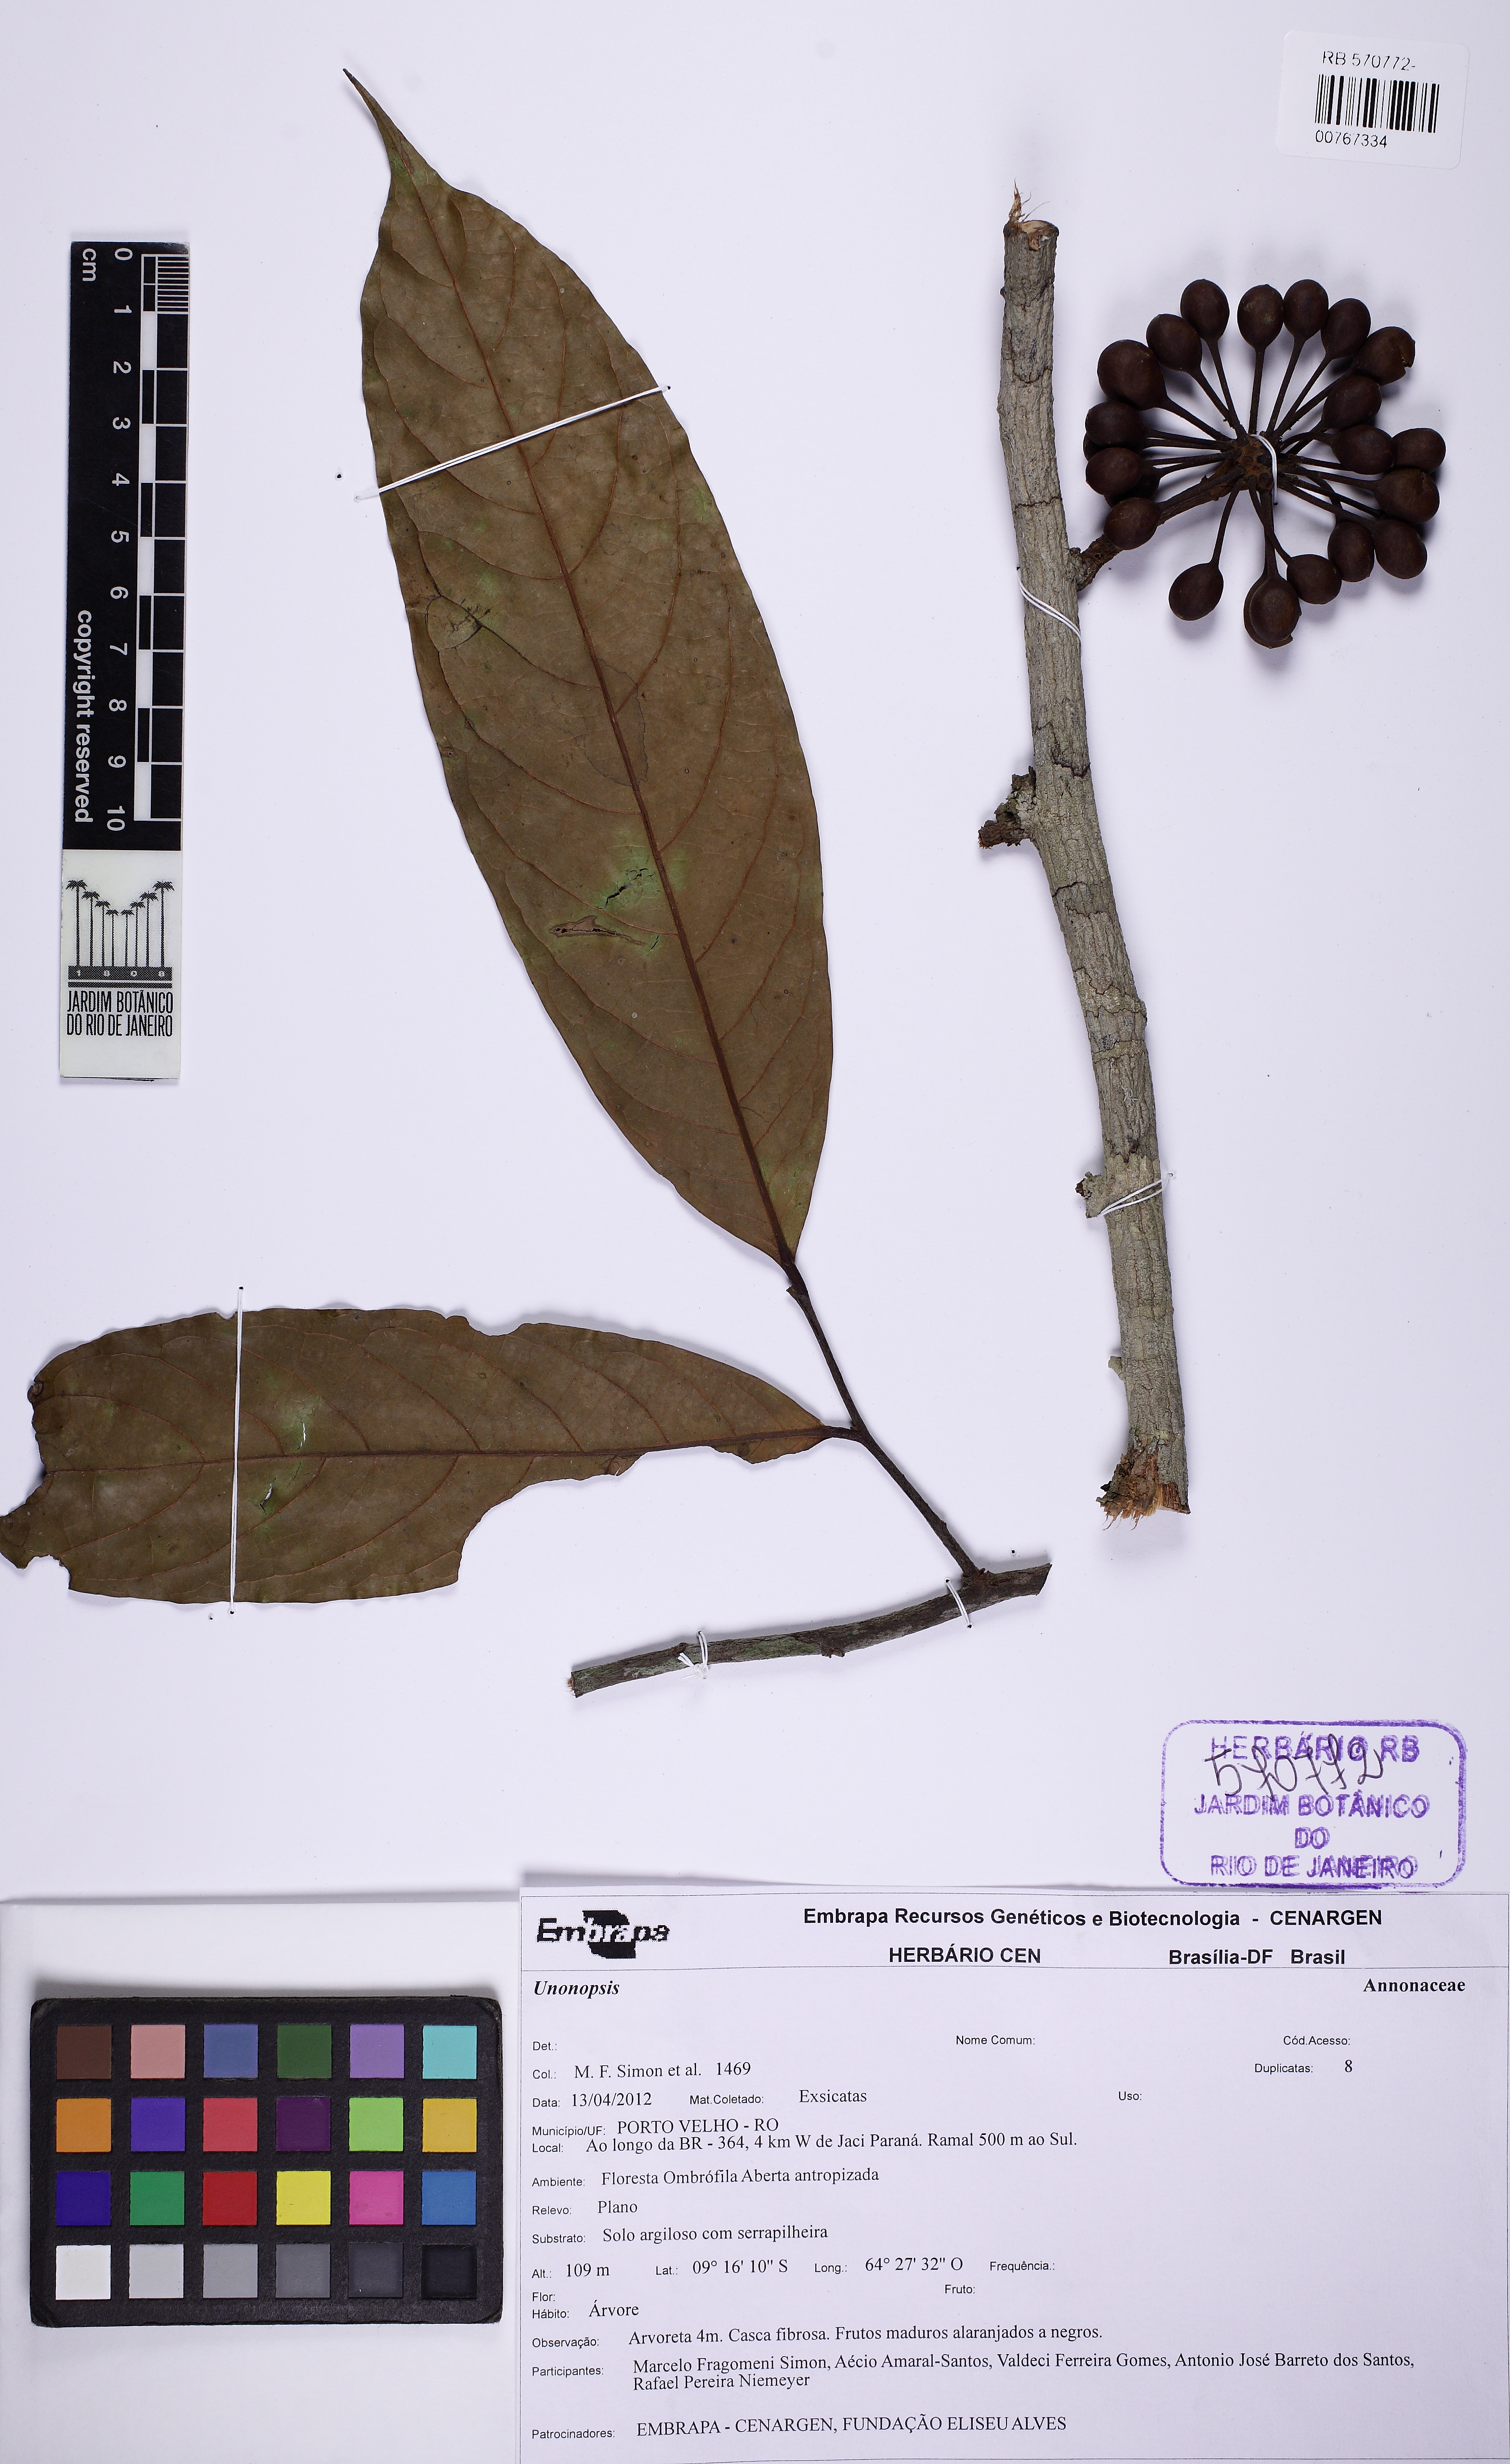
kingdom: Plantae
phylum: Tracheophyta
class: Magnoliopsida
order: Magnoliales
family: Annonaceae
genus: Unonopsis
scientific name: Unonopsis duckei
